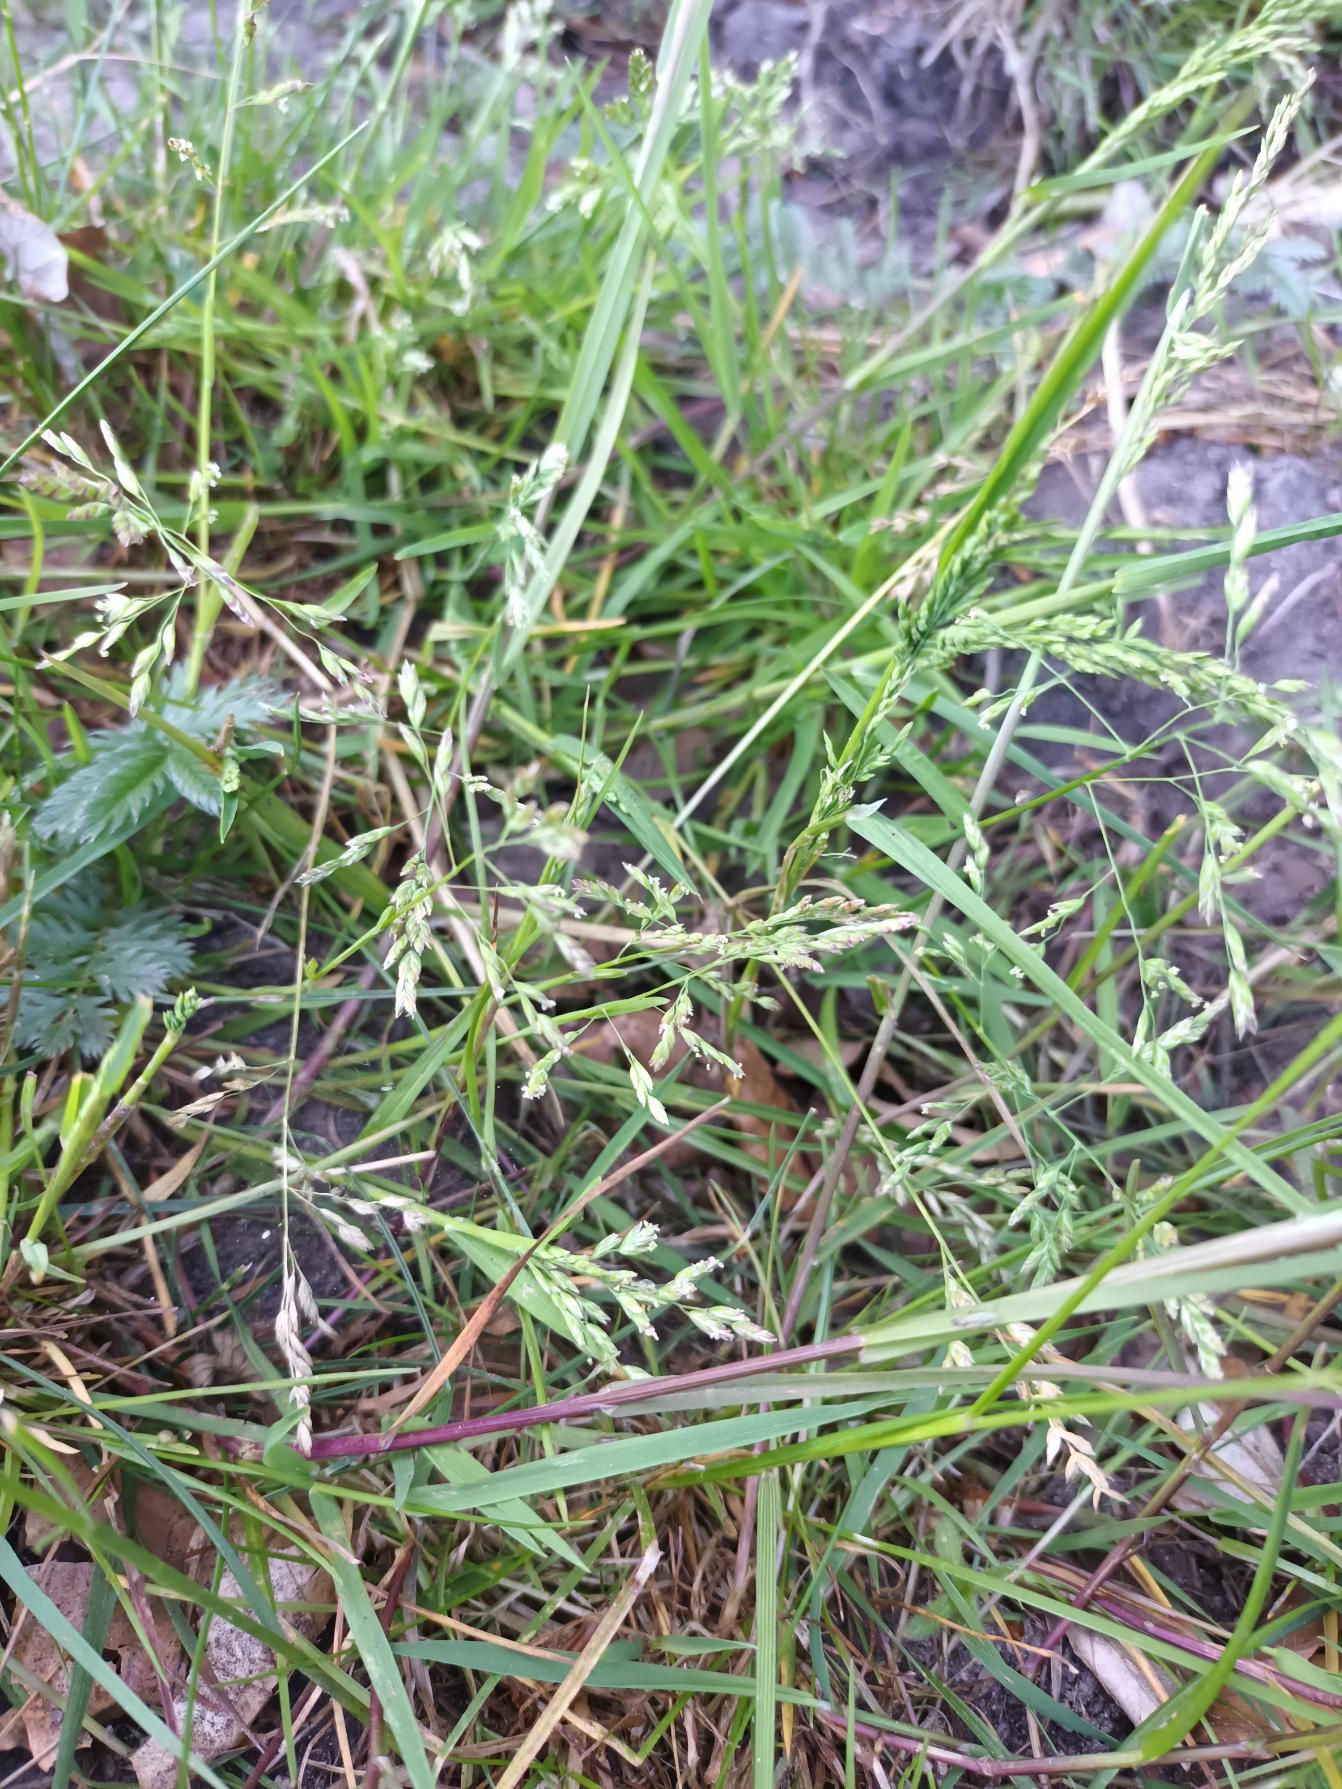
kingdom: Plantae
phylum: Tracheophyta
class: Liliopsida
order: Poales
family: Poaceae
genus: Poa
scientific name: Poa annua
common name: Enårig rapgræs
